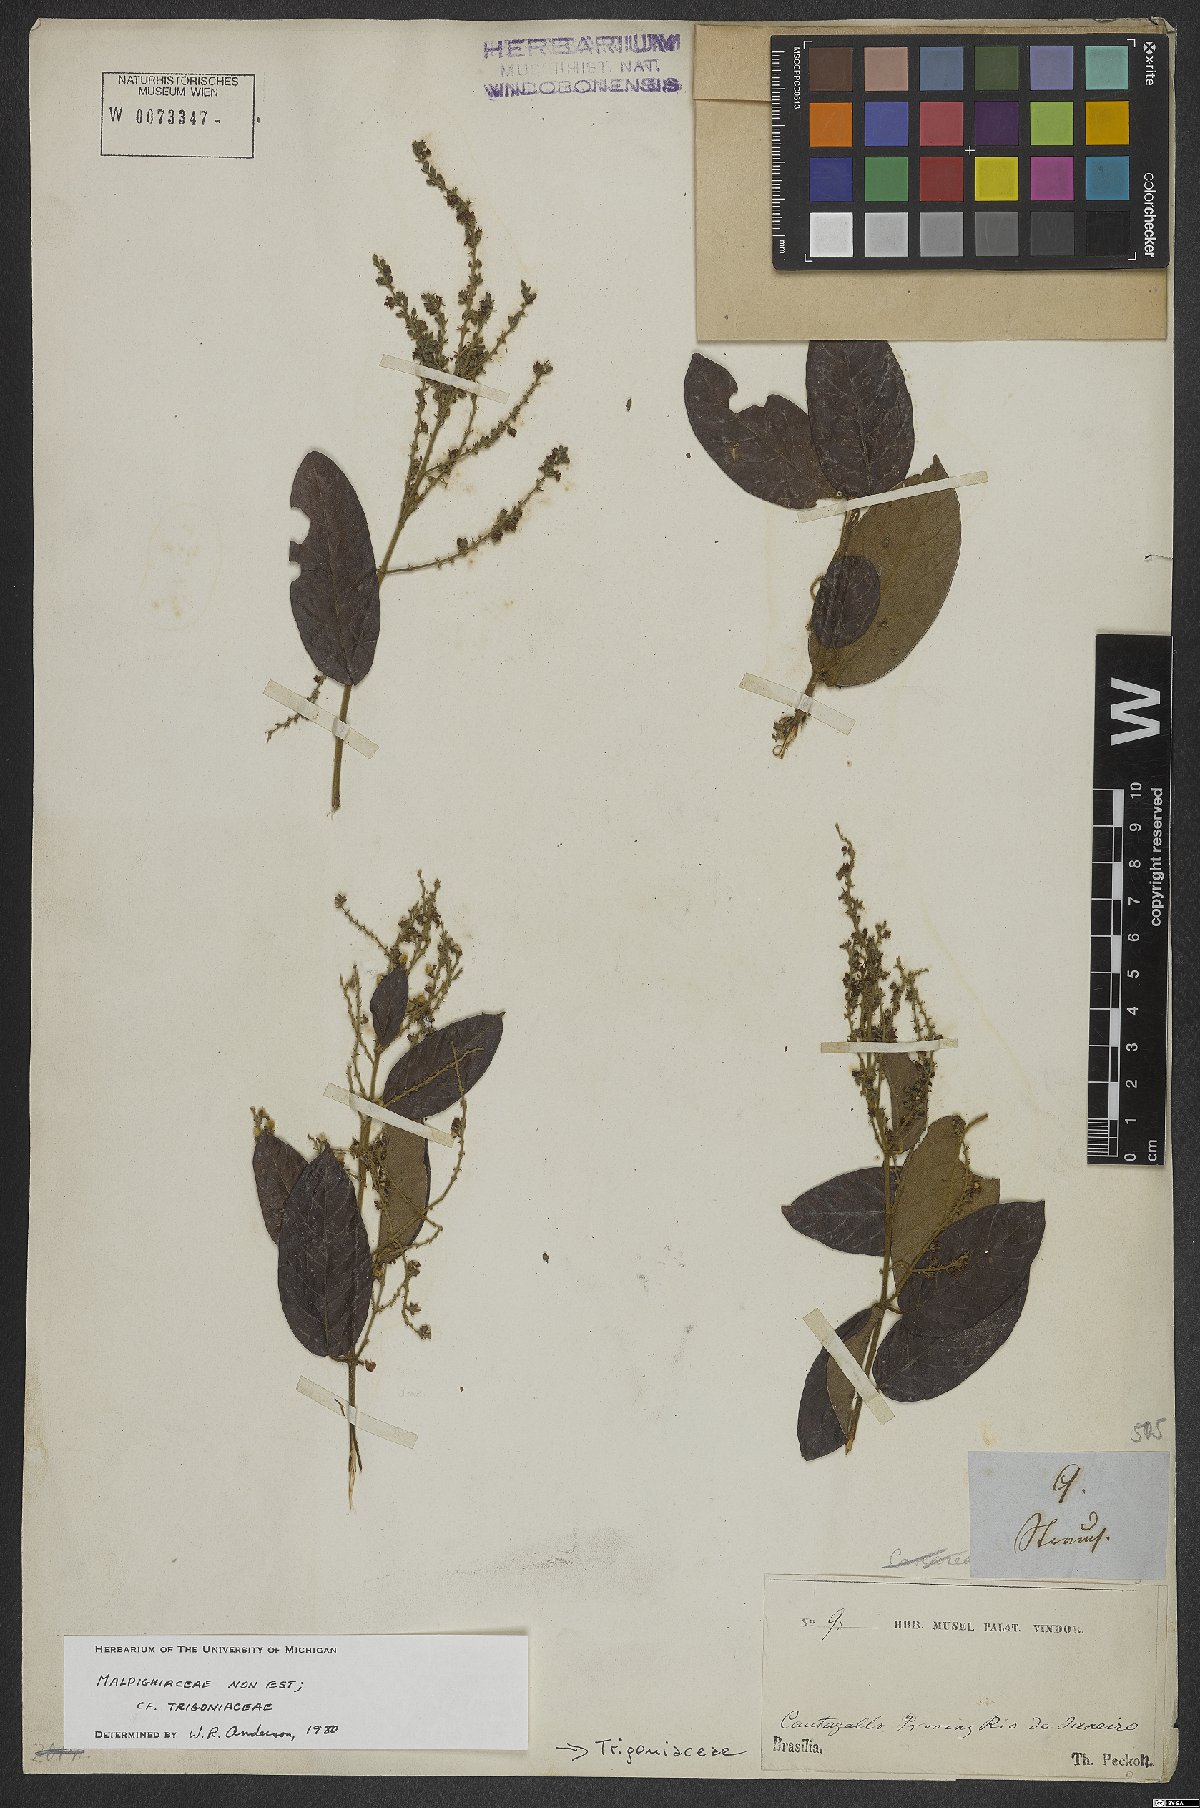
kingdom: Plantae
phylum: Tracheophyta
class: Magnoliopsida
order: Malpighiales
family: Trigoniaceae
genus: Trigonia
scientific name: Trigonia villosa
